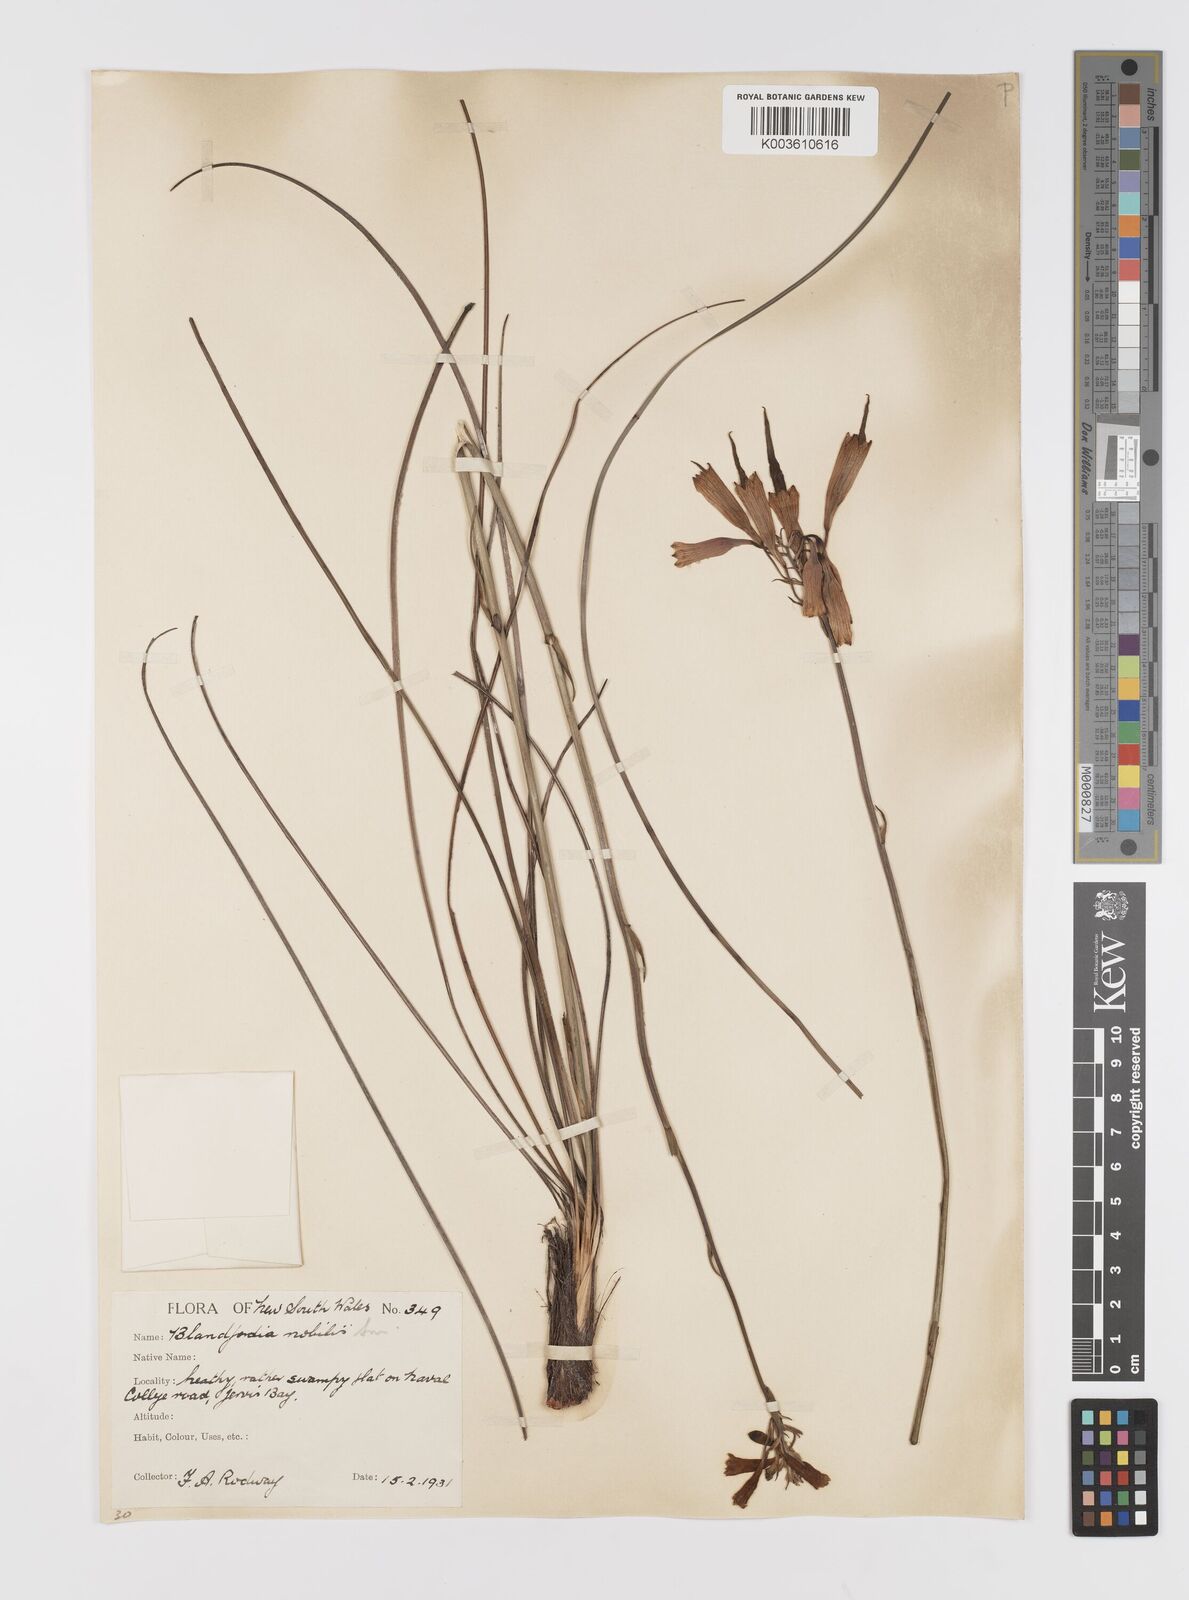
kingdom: Plantae
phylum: Tracheophyta
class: Liliopsida
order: Asparagales
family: Blandfordiaceae
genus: Blandfordia
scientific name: Blandfordia nobilis
